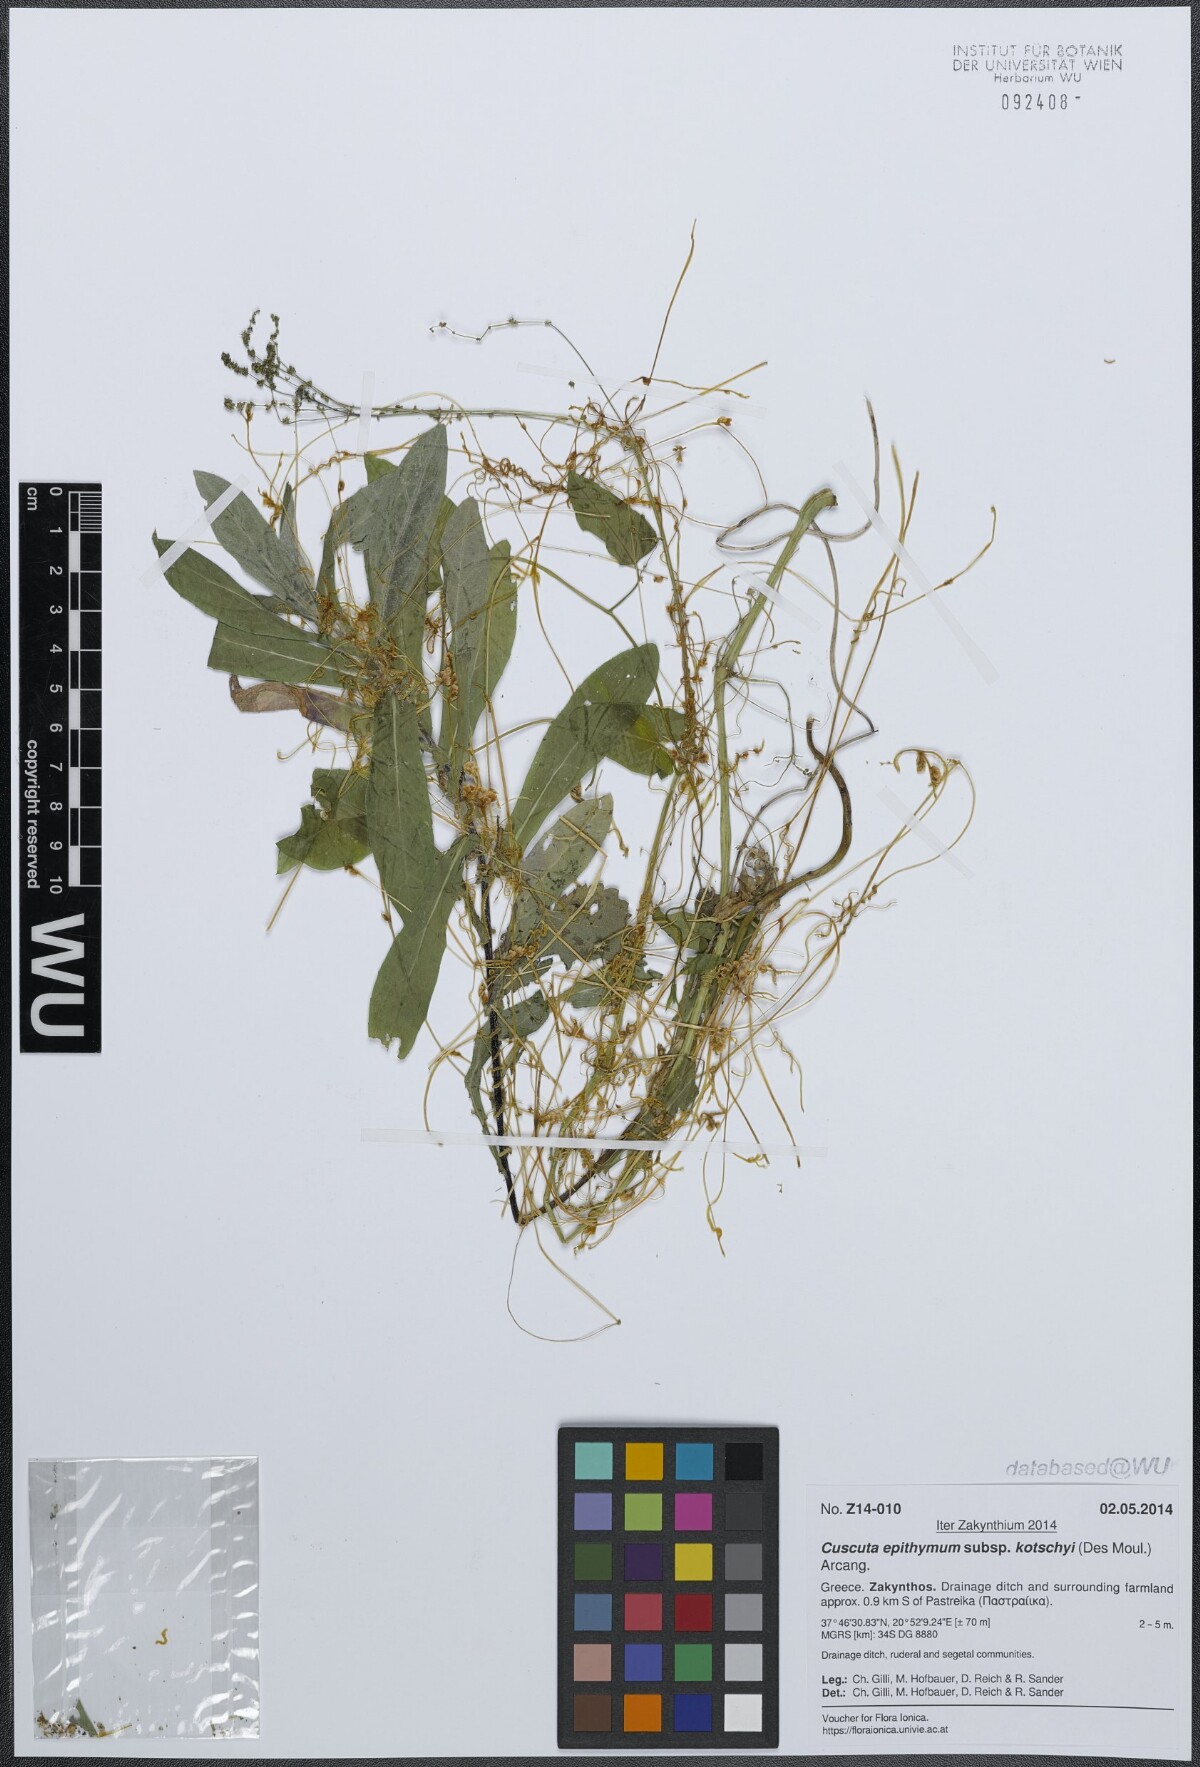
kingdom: Plantae
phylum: Tracheophyta
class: Magnoliopsida
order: Solanales
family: Convolvulaceae
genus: Cuscuta
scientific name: Cuscuta epithymum
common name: Clover dodder
